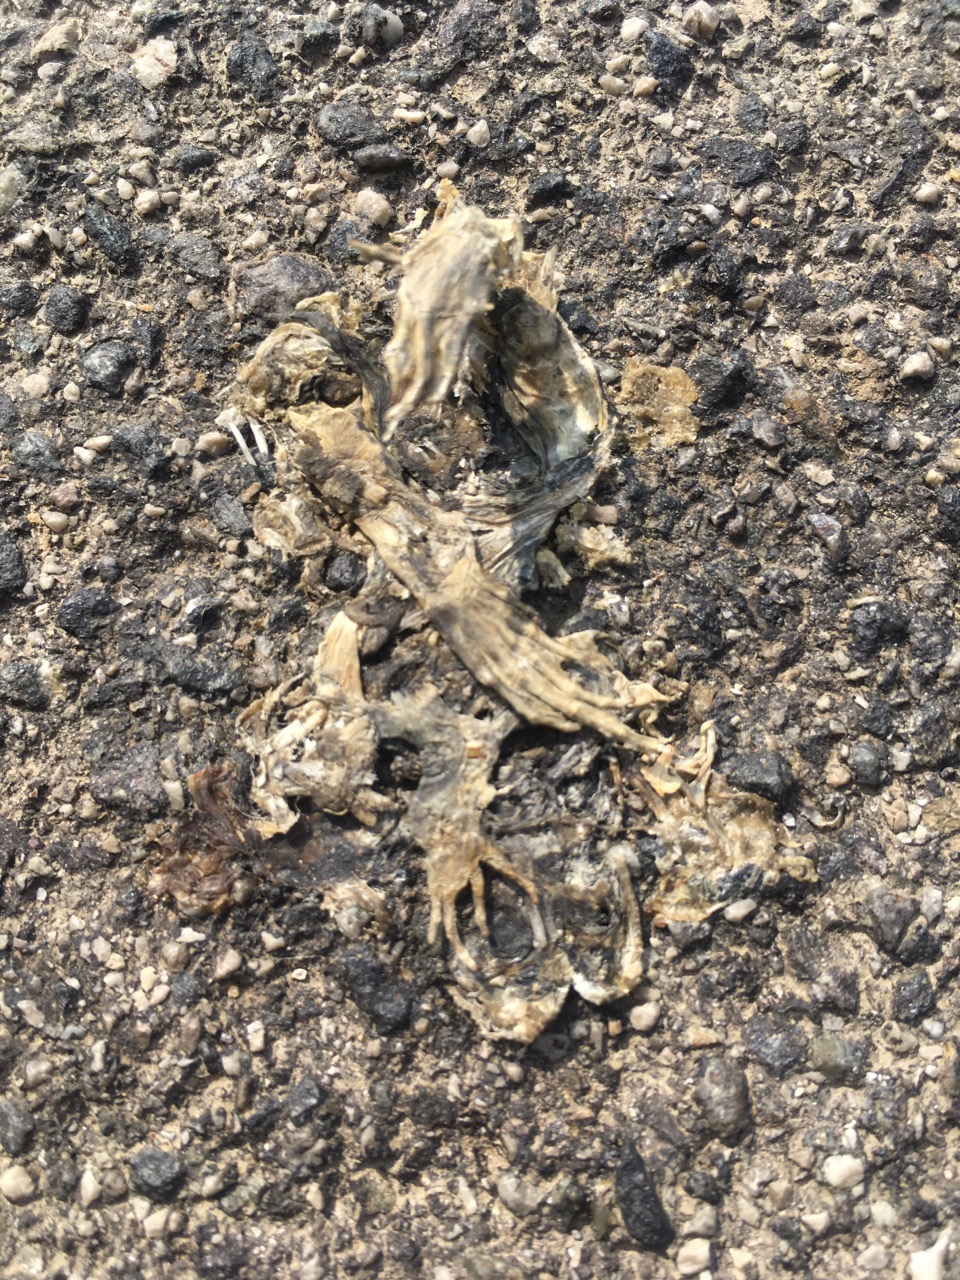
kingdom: Animalia
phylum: Chordata
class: Amphibia
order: Anura
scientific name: Anura
